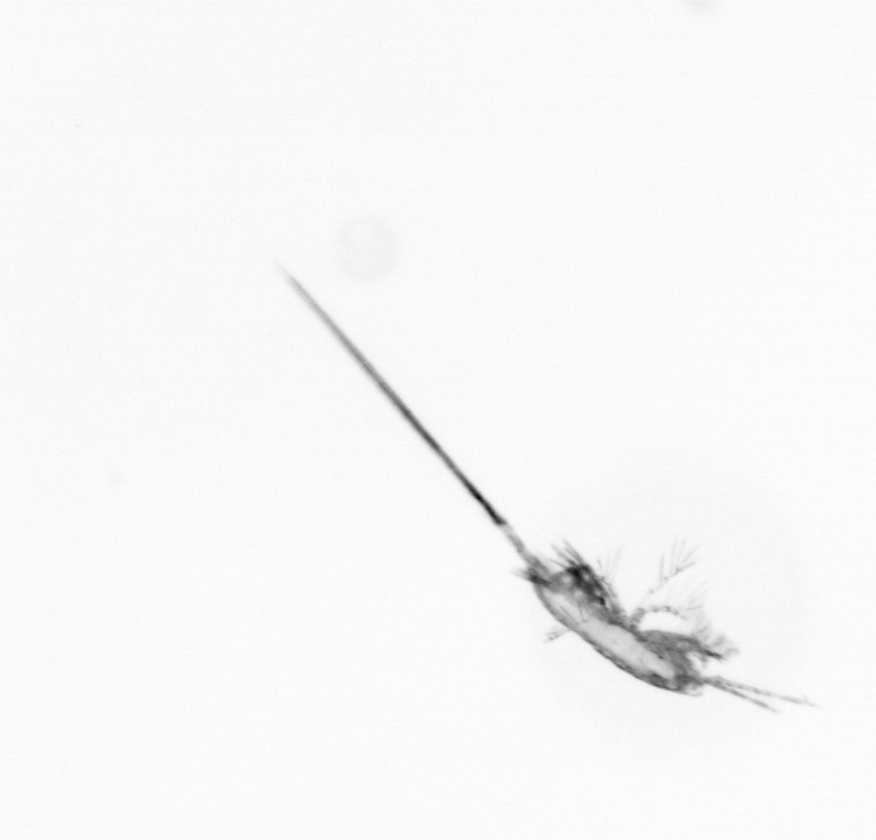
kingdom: Animalia
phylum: Arthropoda
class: Copepoda
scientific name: Copepoda
